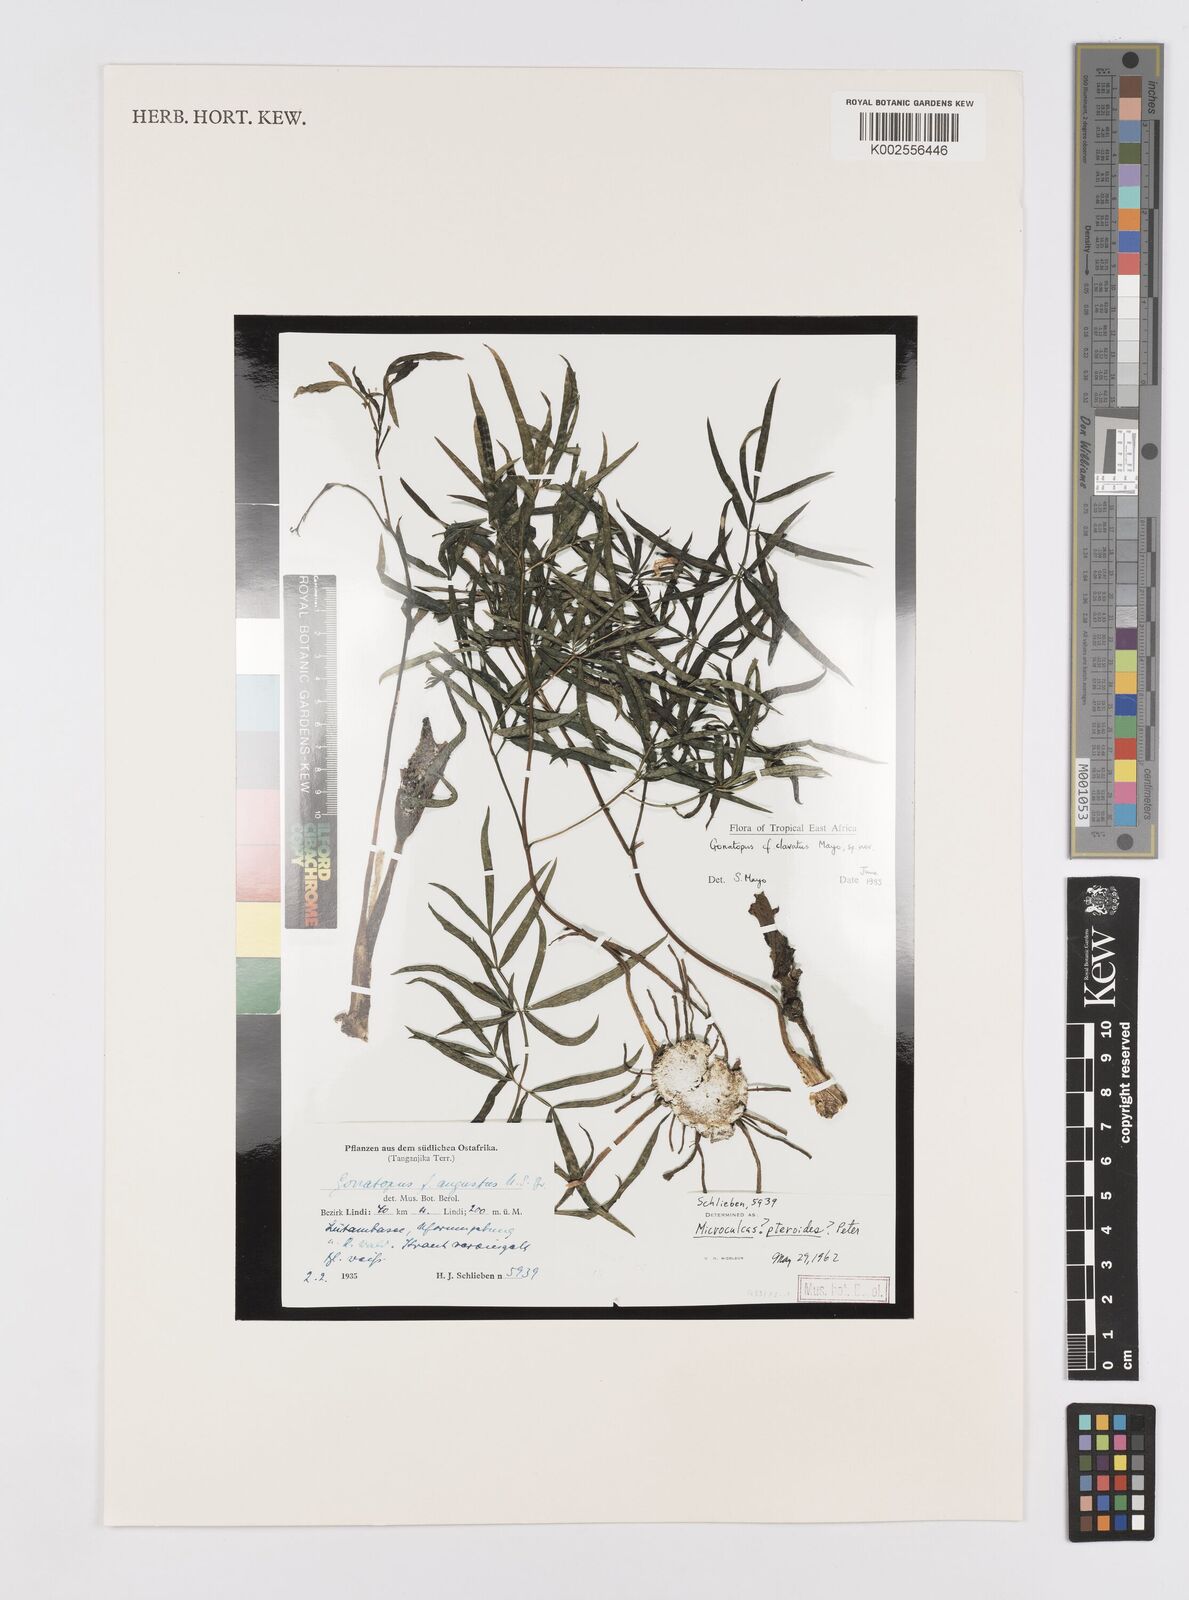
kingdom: Plantae
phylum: Tracheophyta
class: Liliopsida
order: Alismatales
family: Araceae
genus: Gonatopus
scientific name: Gonatopus clavatus
